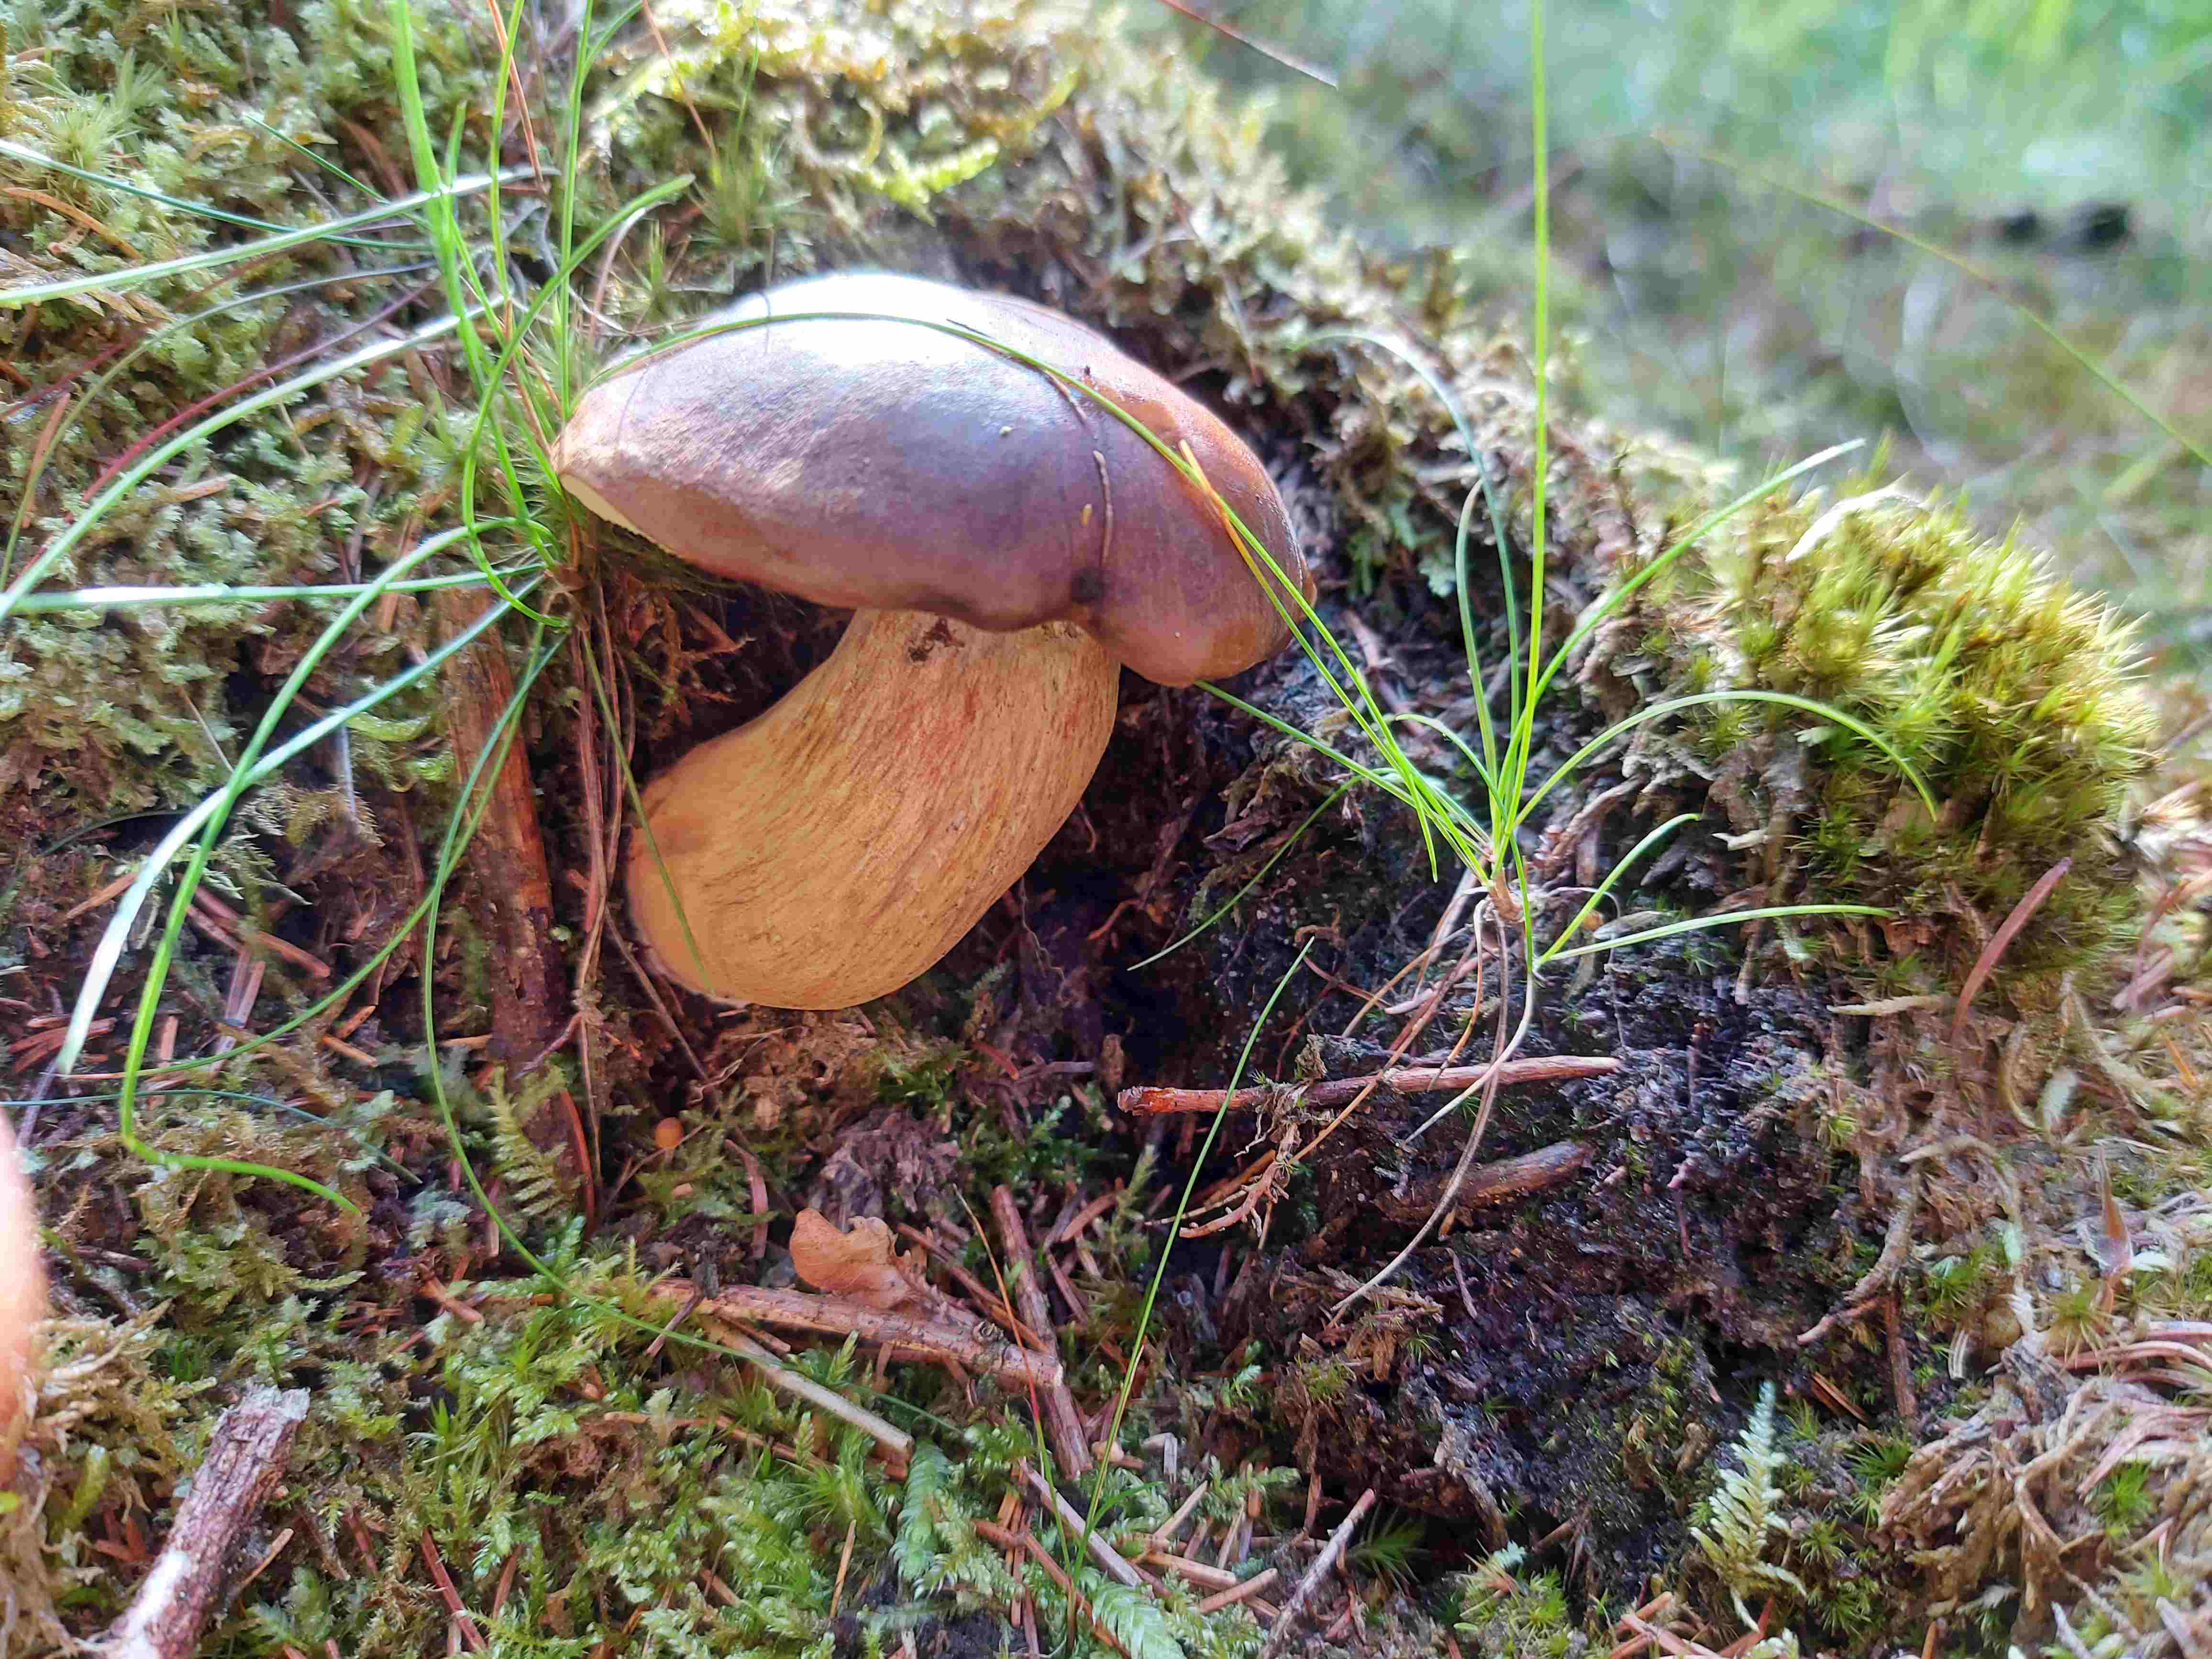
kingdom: Fungi
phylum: Basidiomycota
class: Agaricomycetes
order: Boletales
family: Boletaceae
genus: Imleria
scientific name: Imleria badia
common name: brunstokket rørhat
